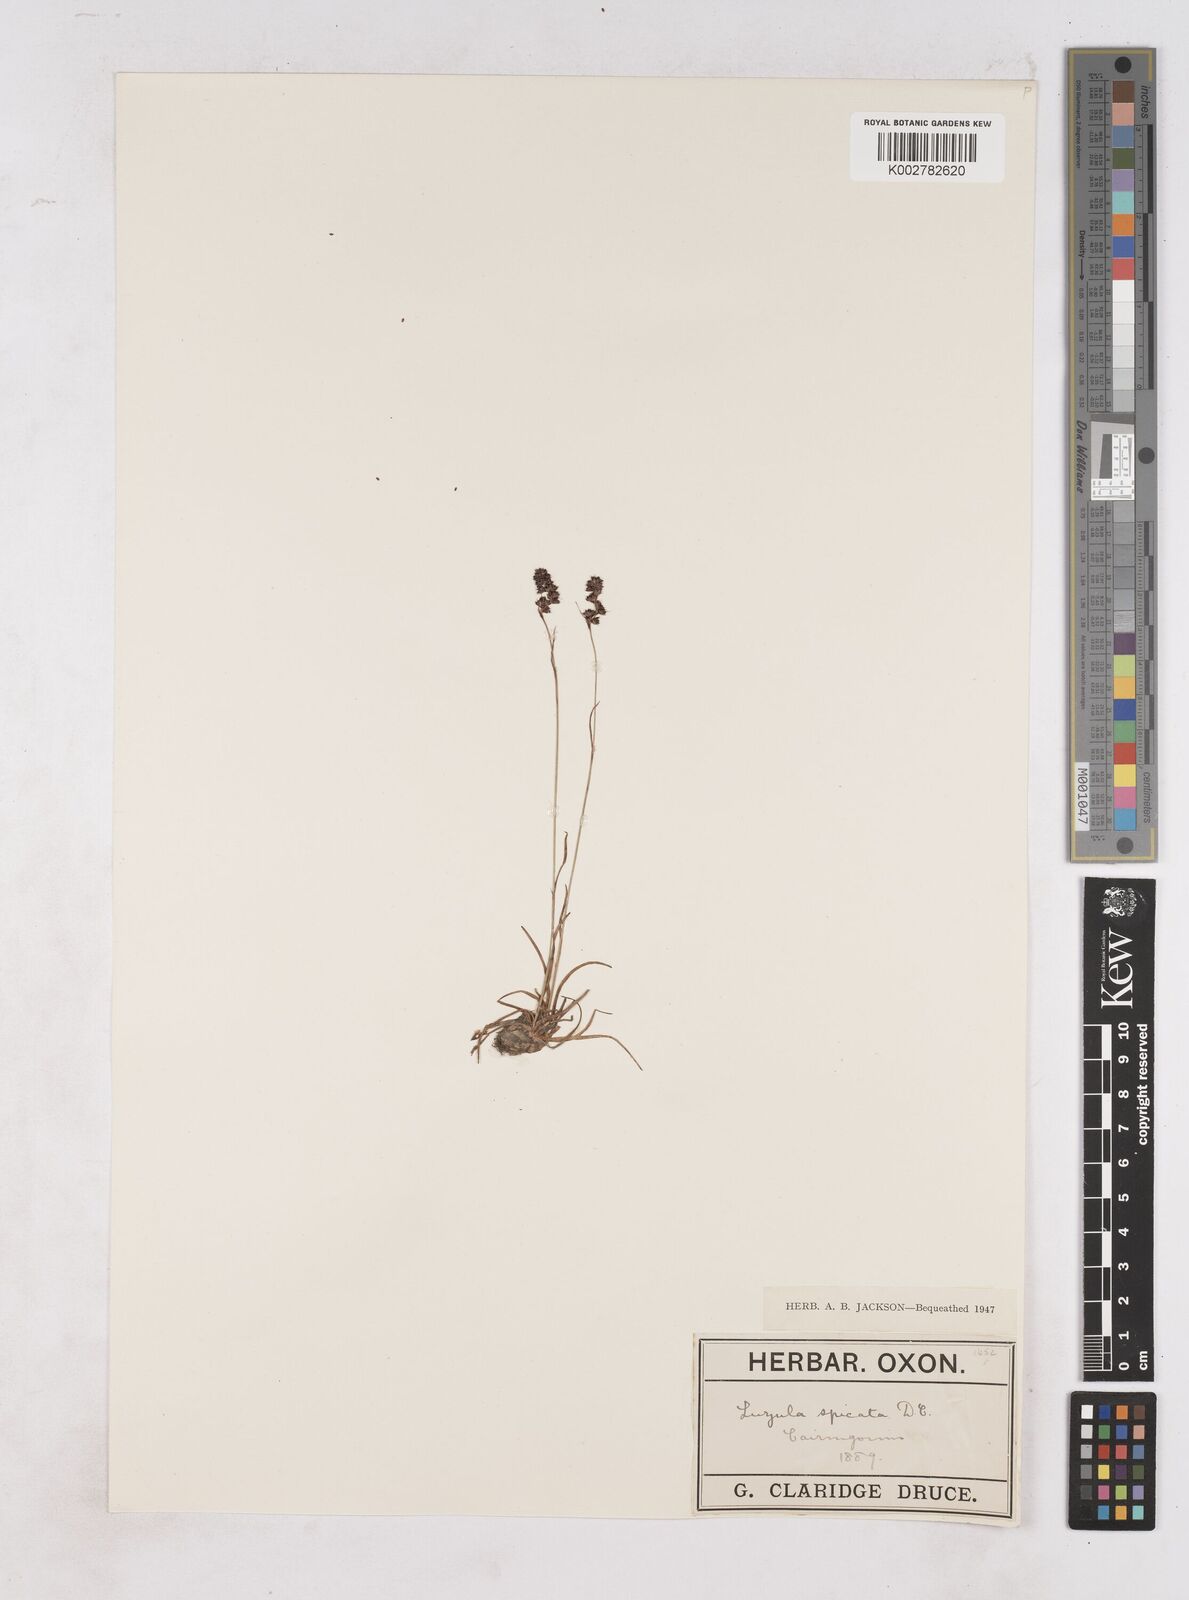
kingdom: Plantae
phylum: Tracheophyta
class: Liliopsida
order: Poales
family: Juncaceae
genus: Luzula
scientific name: Luzula spicata
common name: Spiked wood-rush
